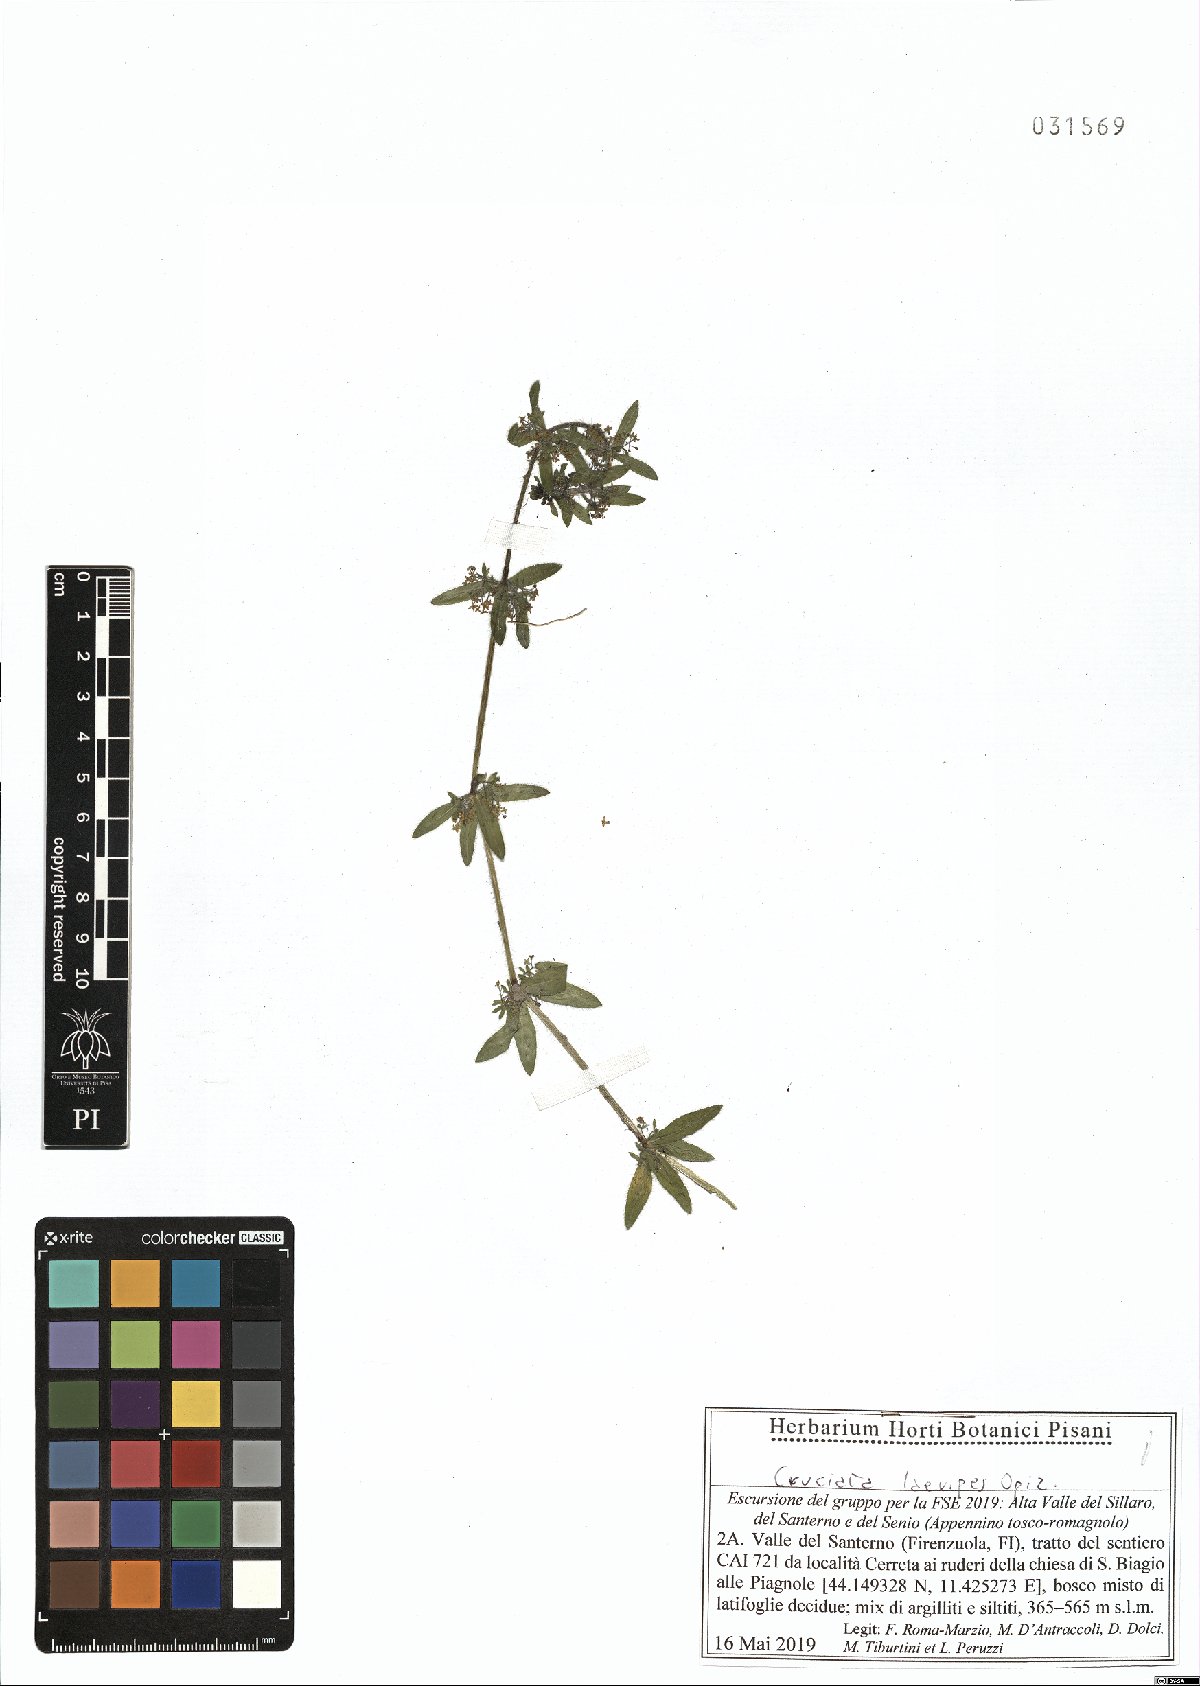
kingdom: Plantae
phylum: Tracheophyta
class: Magnoliopsida
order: Gentianales
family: Rubiaceae
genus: Cruciata
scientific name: Cruciata laevipes
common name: Crosswort
